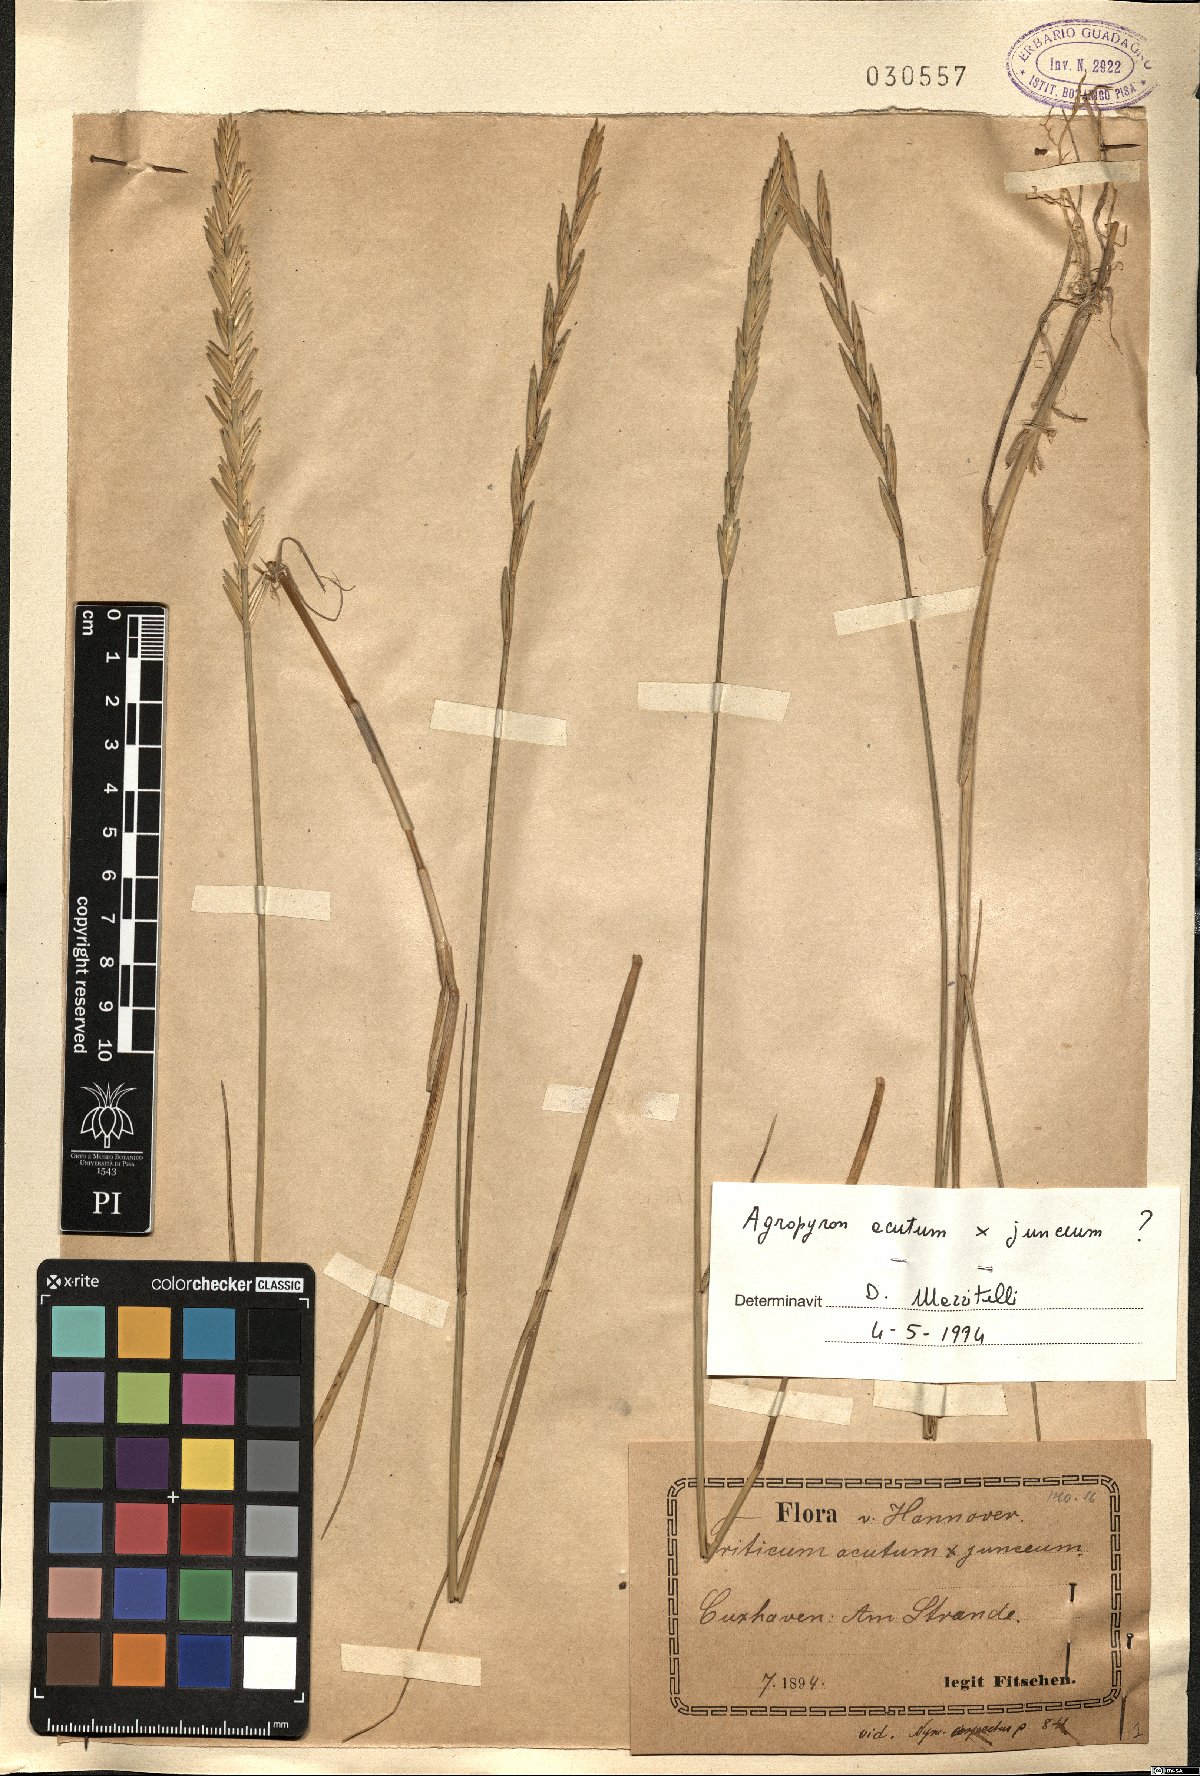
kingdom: Plantae
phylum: Tracheophyta
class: Liliopsida
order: Poales
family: Poaceae
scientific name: Poaceae
